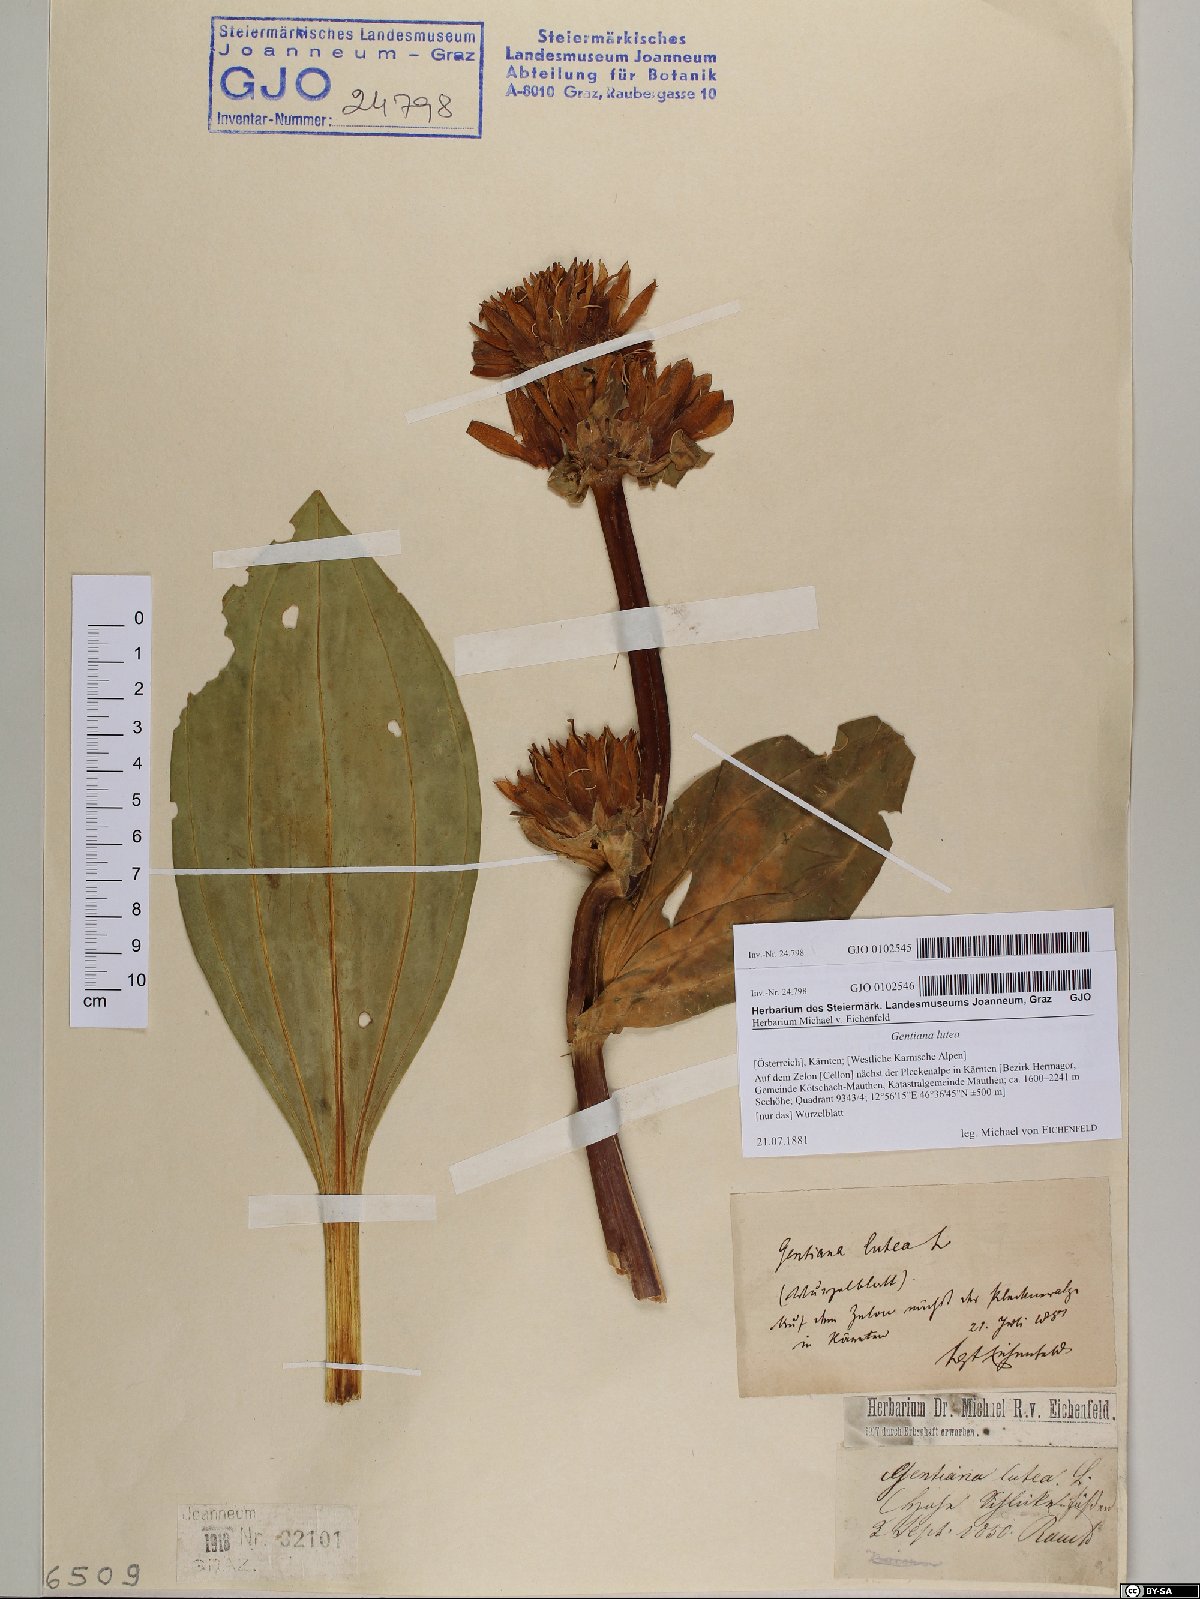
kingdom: Plantae
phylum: Tracheophyta
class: Magnoliopsida
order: Gentianales
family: Gentianaceae
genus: Gentiana
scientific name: Gentiana lutea
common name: Great yellow gentian
